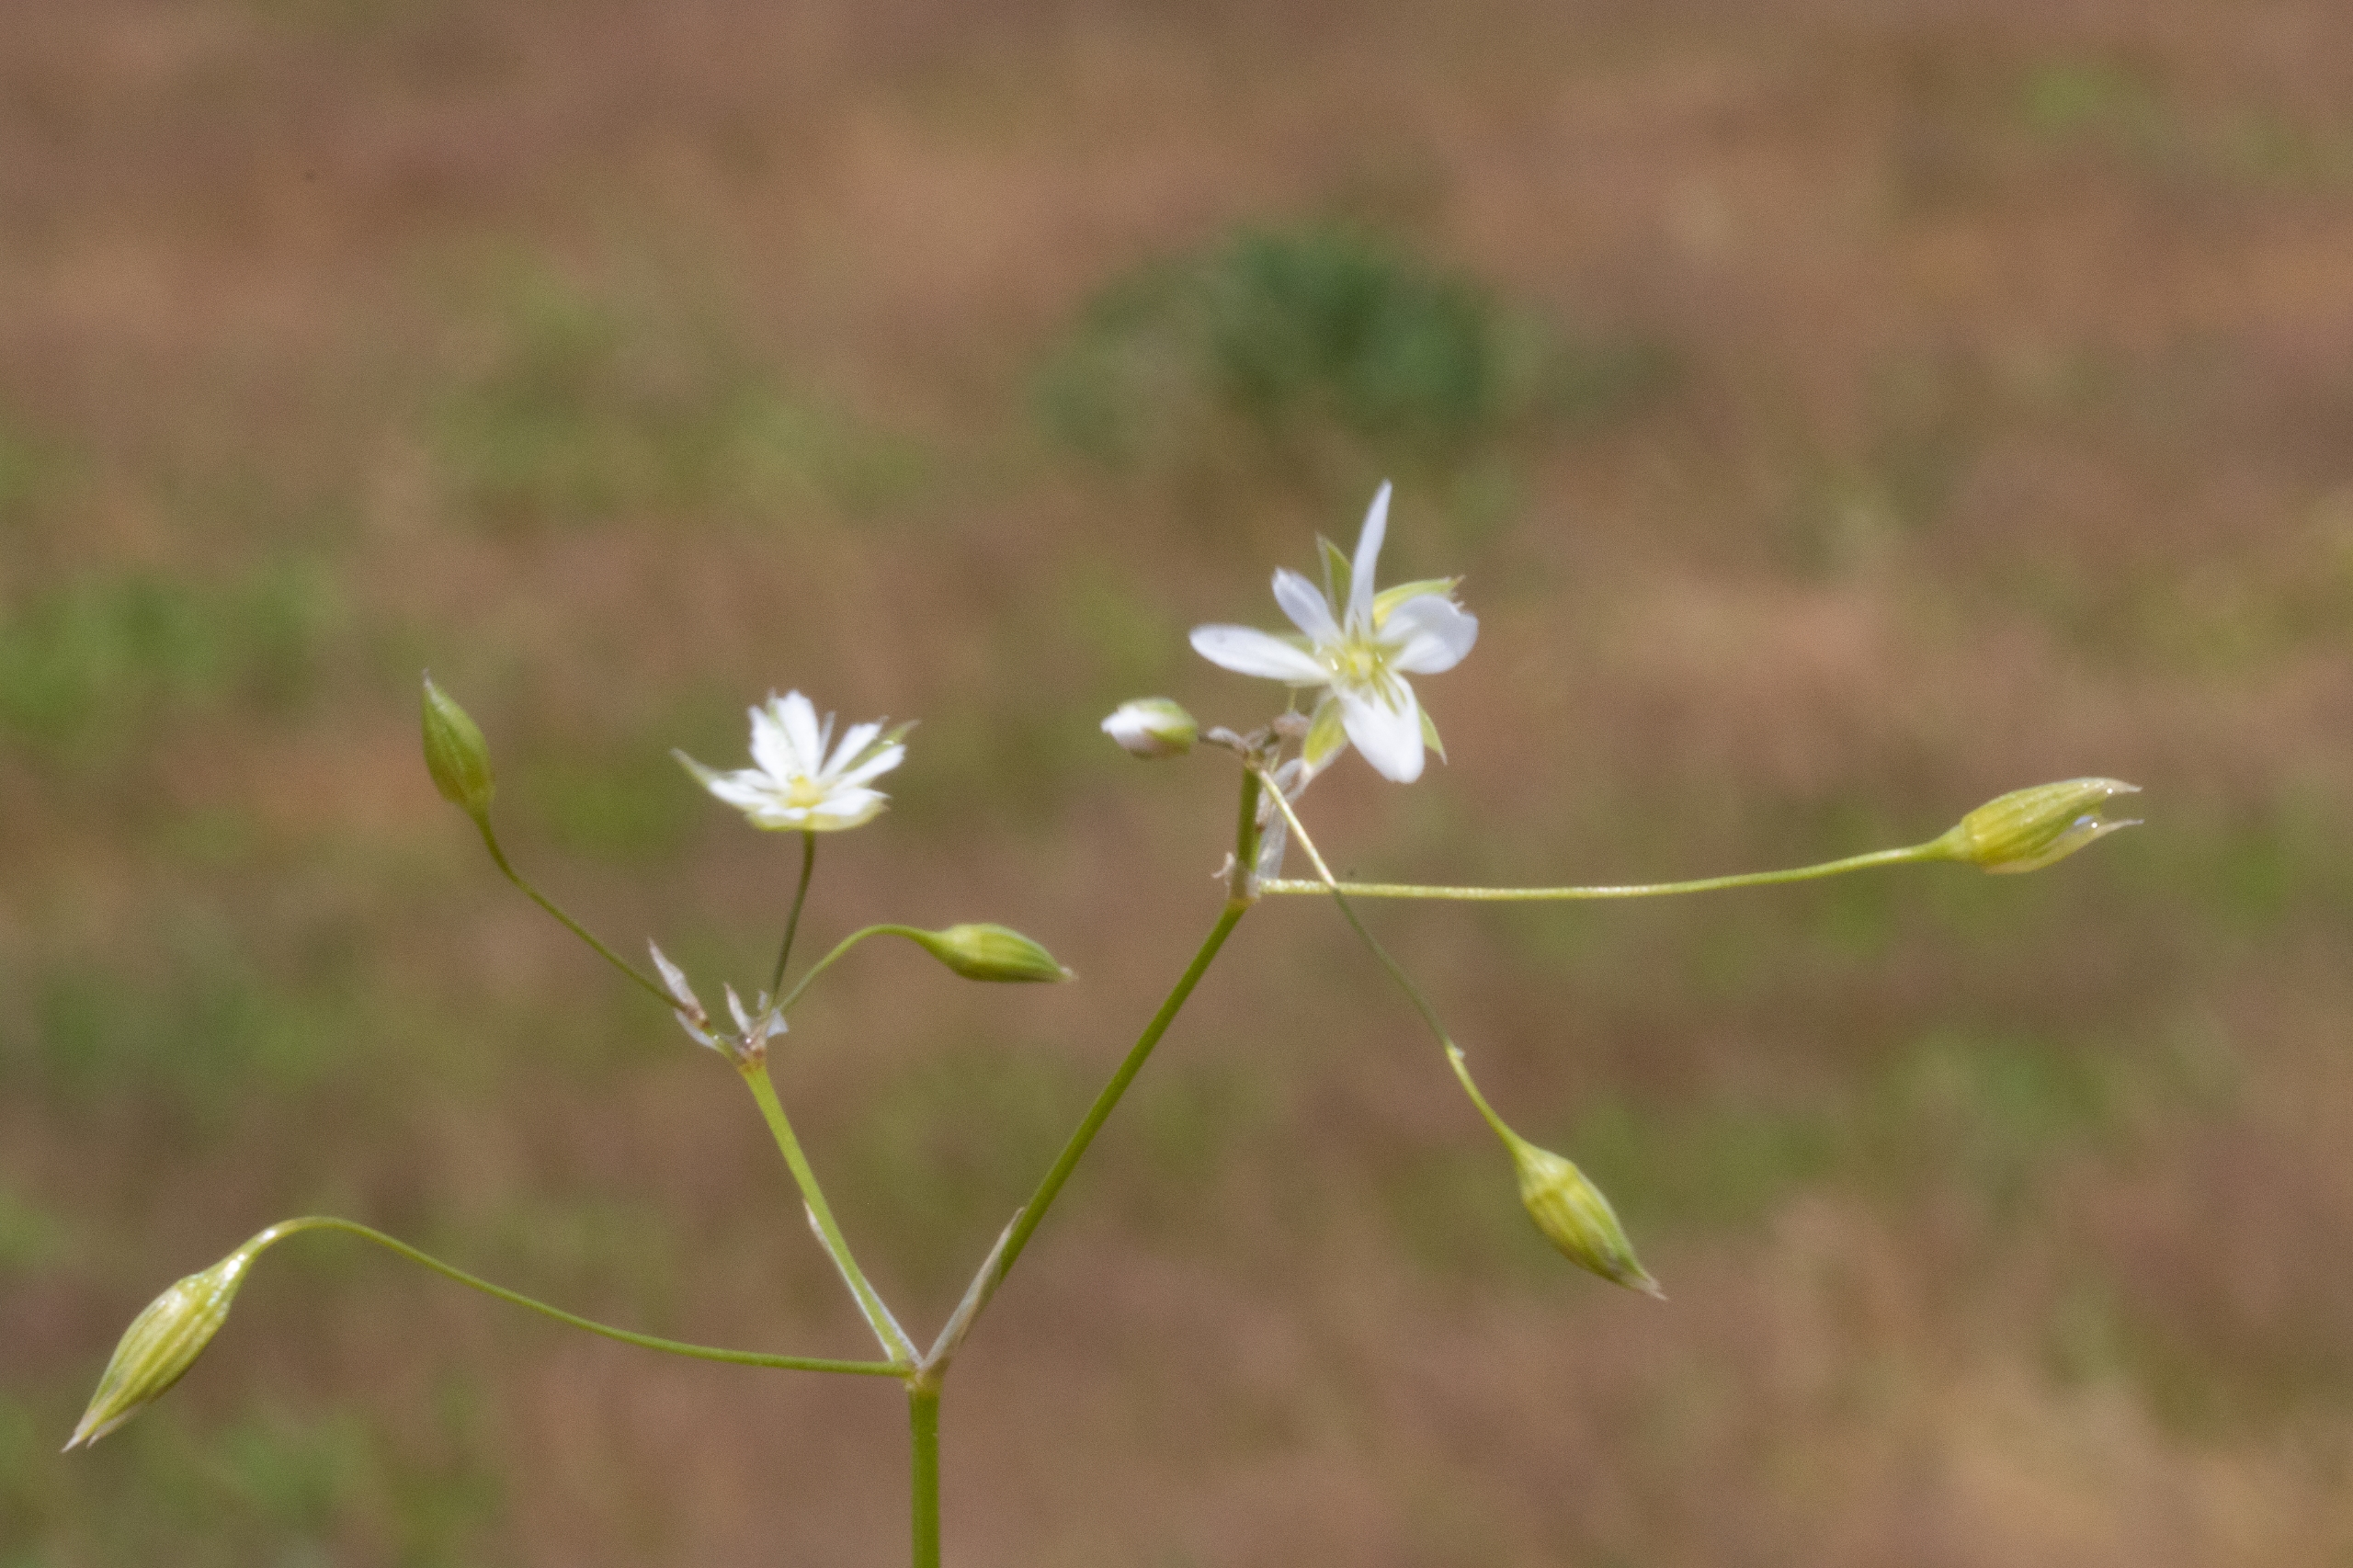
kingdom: Plantae
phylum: Tracheophyta
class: Magnoliopsida
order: Caryophyllales
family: Caryophyllaceae
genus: Stellaria
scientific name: Stellaria graminea
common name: Græsbladet fladstjerne
